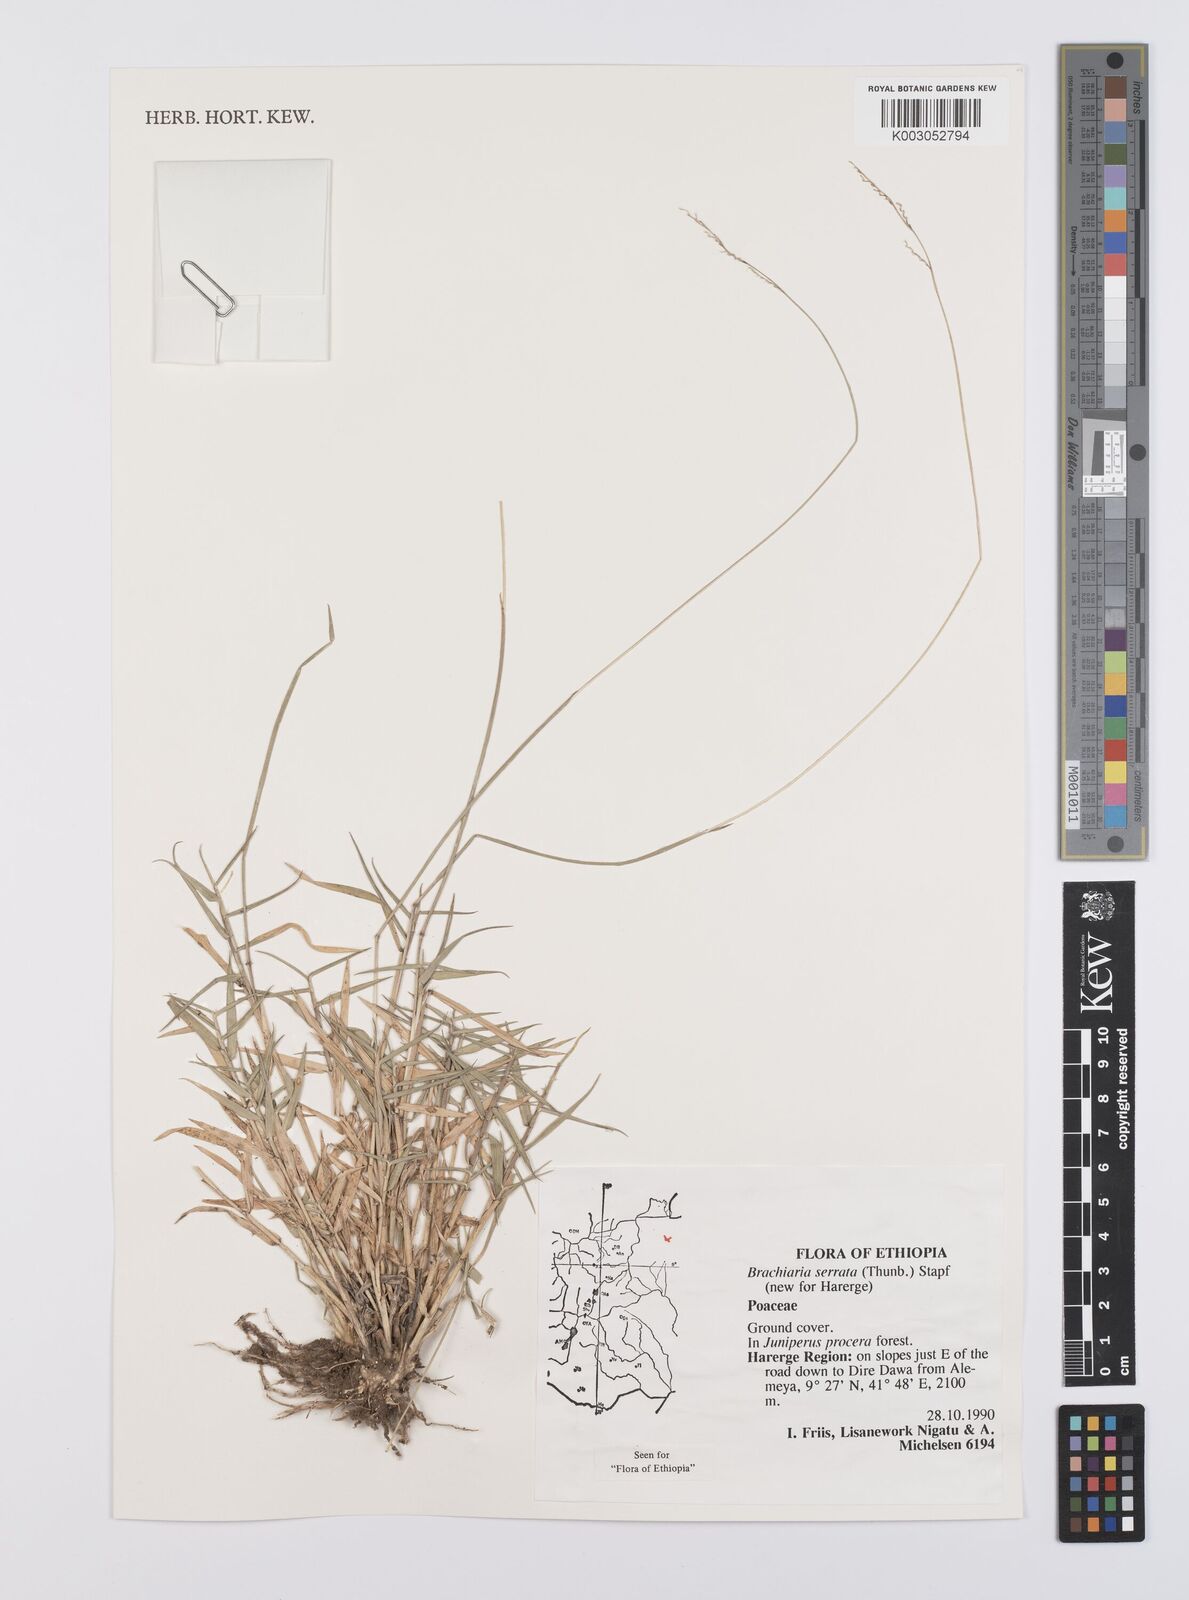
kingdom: Plantae
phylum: Tracheophyta
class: Liliopsida
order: Poales
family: Poaceae
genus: Urochloa
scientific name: Urochloa serrata
